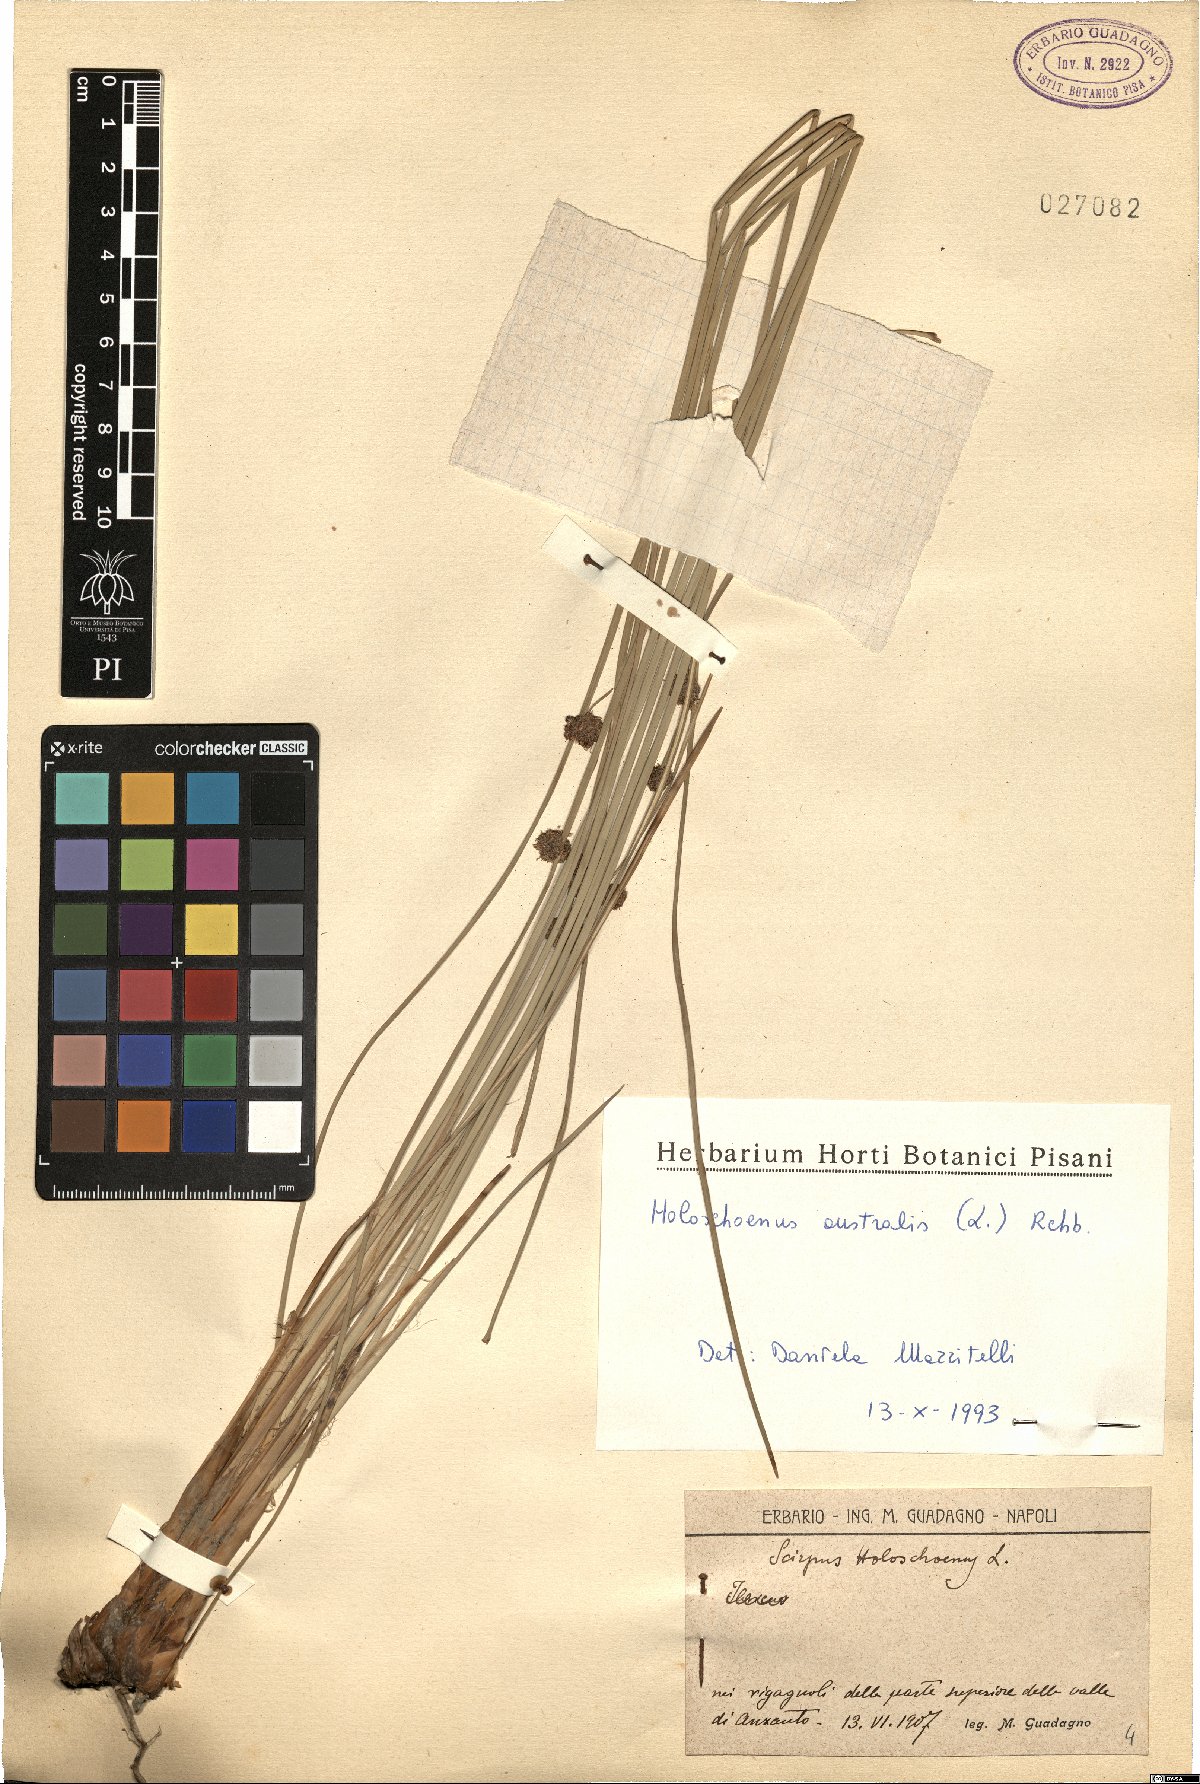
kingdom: Plantae
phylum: Tracheophyta
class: Liliopsida
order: Poales
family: Cyperaceae
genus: Scirpoides
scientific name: Scirpoides holoschoenus
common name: Round-headed club-rush
